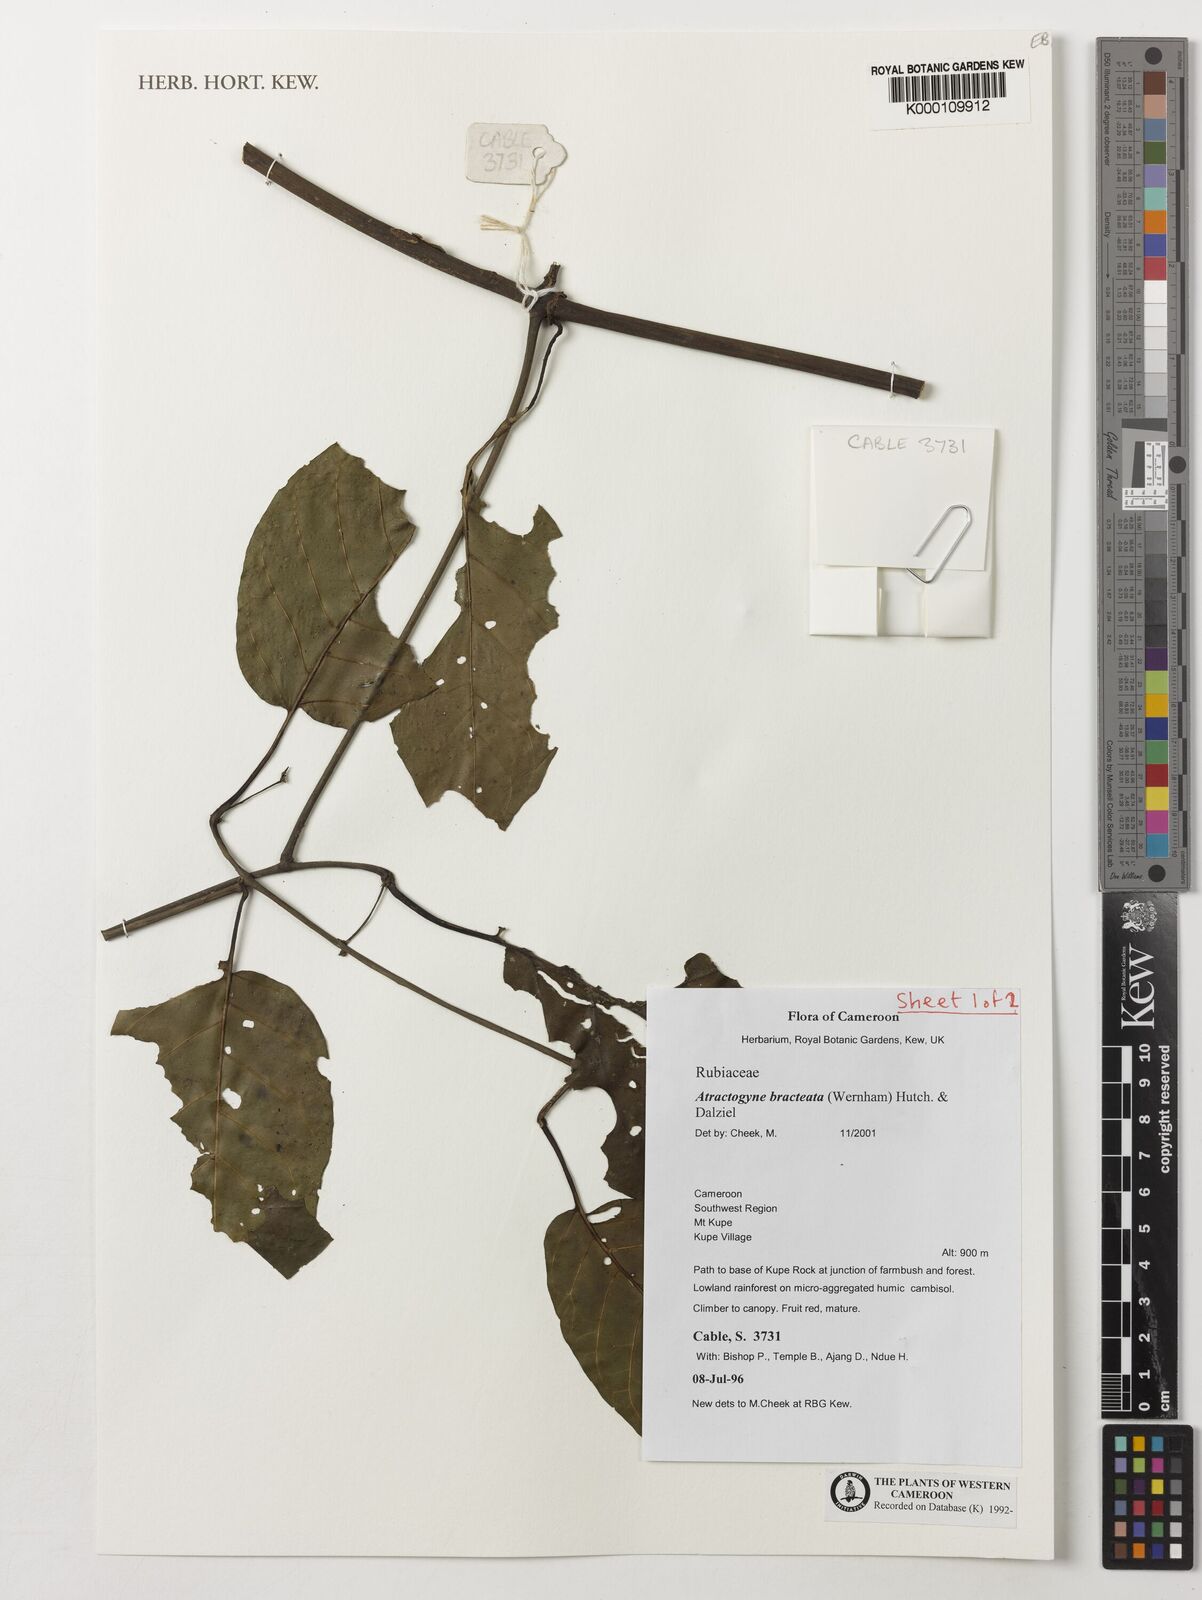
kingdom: Plantae
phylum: Tracheophyta
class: Magnoliopsida
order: Gentianales
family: Rubiaceae
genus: Atractogyne
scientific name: Atractogyne bracteata
